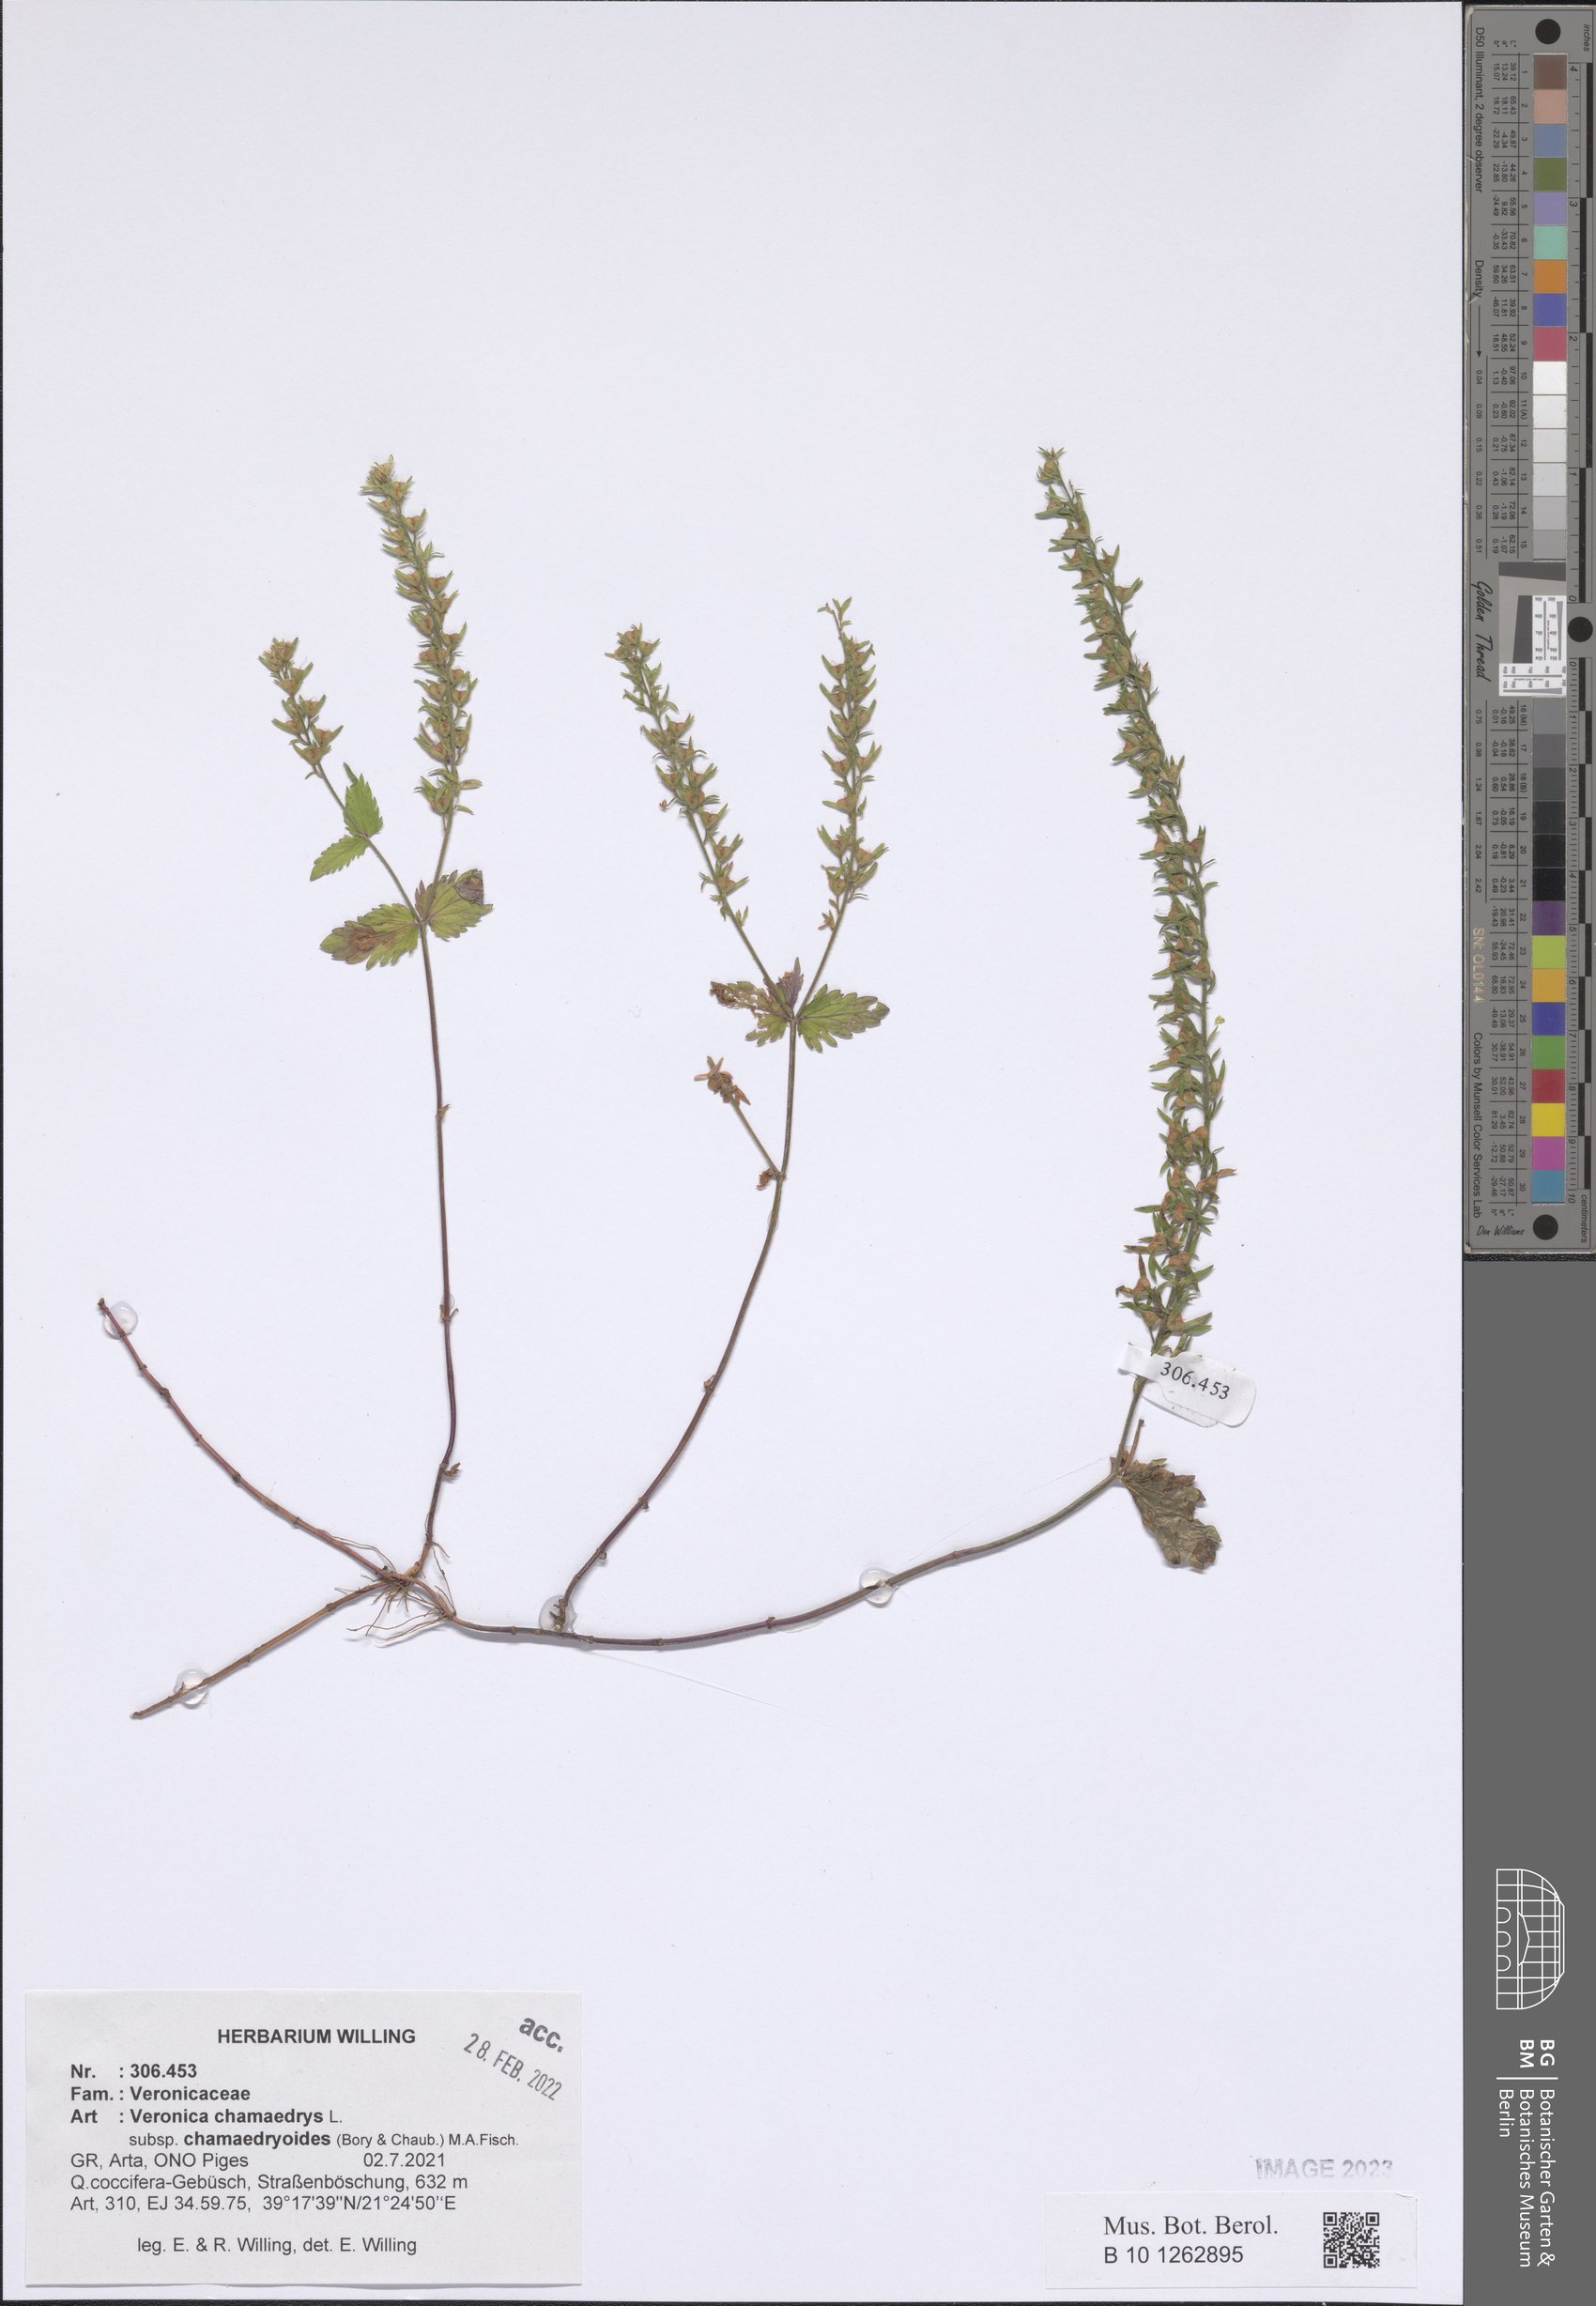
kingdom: Plantae
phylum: Tracheophyta
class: Magnoliopsida
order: Lamiales
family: Plantaginaceae
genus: Veronica
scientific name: Veronica chamaedrys
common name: Germander speedwell
